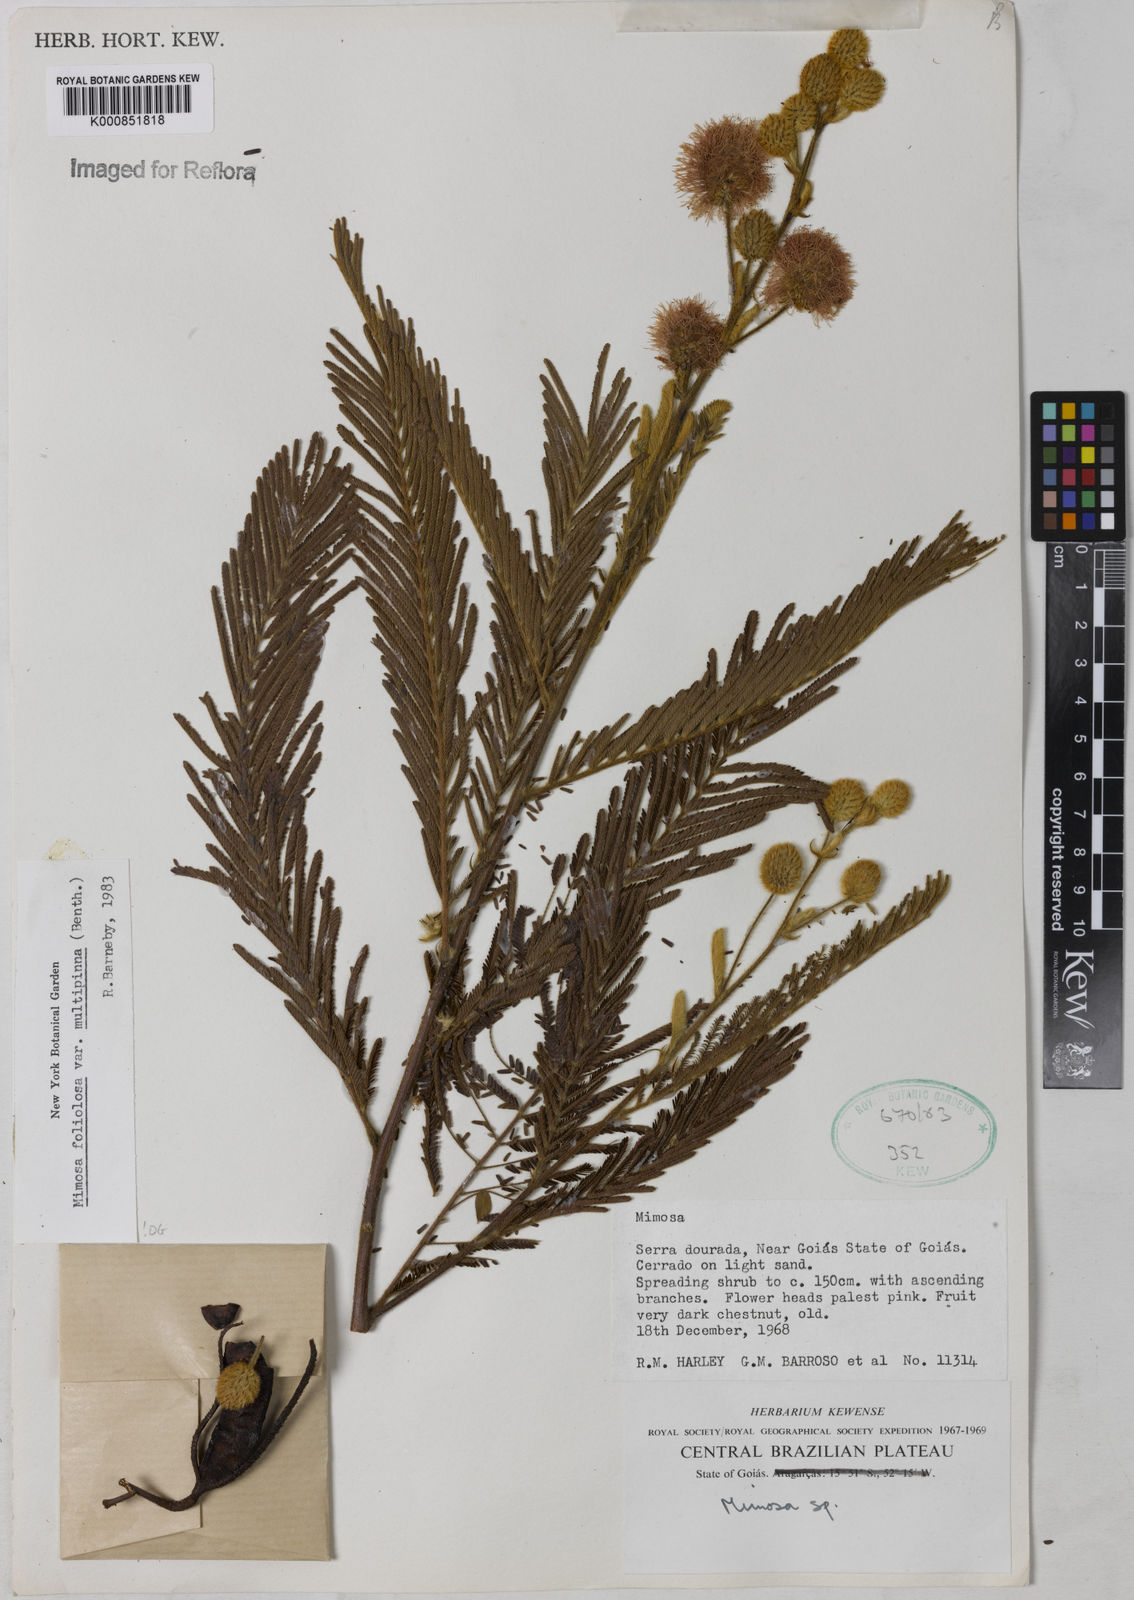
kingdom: Plantae
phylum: Tracheophyta
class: Magnoliopsida
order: Fabales
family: Fabaceae
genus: Mimosa
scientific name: Mimosa foliolosa
